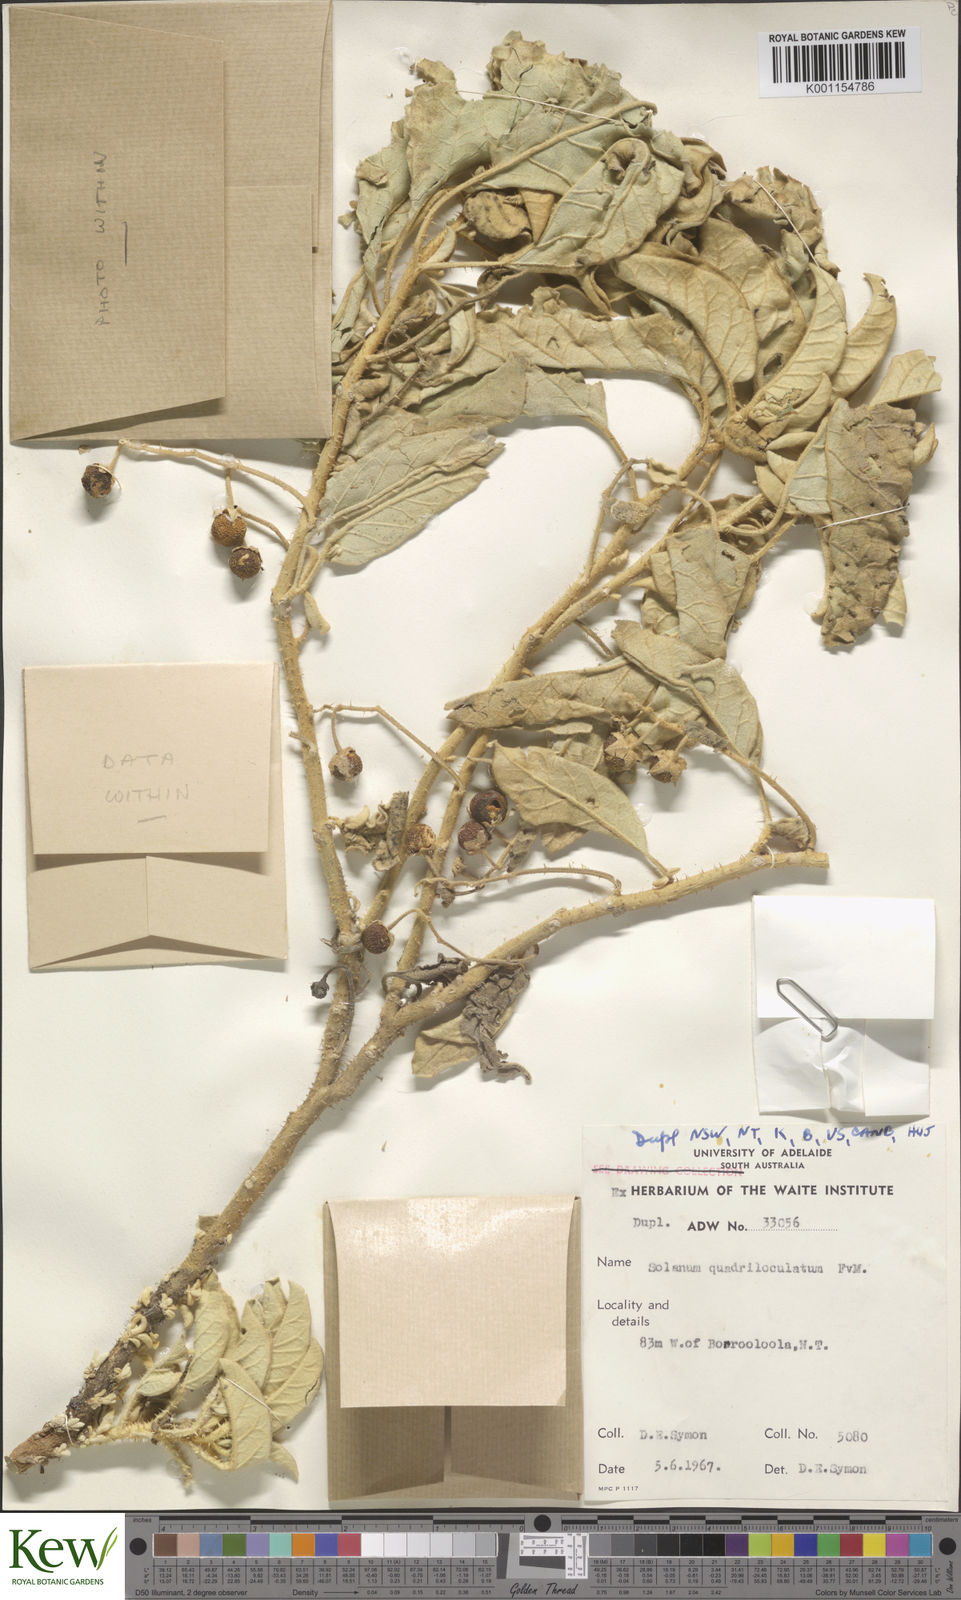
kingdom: Plantae
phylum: Tracheophyta
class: Magnoliopsida
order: Solanales
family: Solanaceae
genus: Solanum
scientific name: Solanum quadriloculatum
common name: Wild tomato
